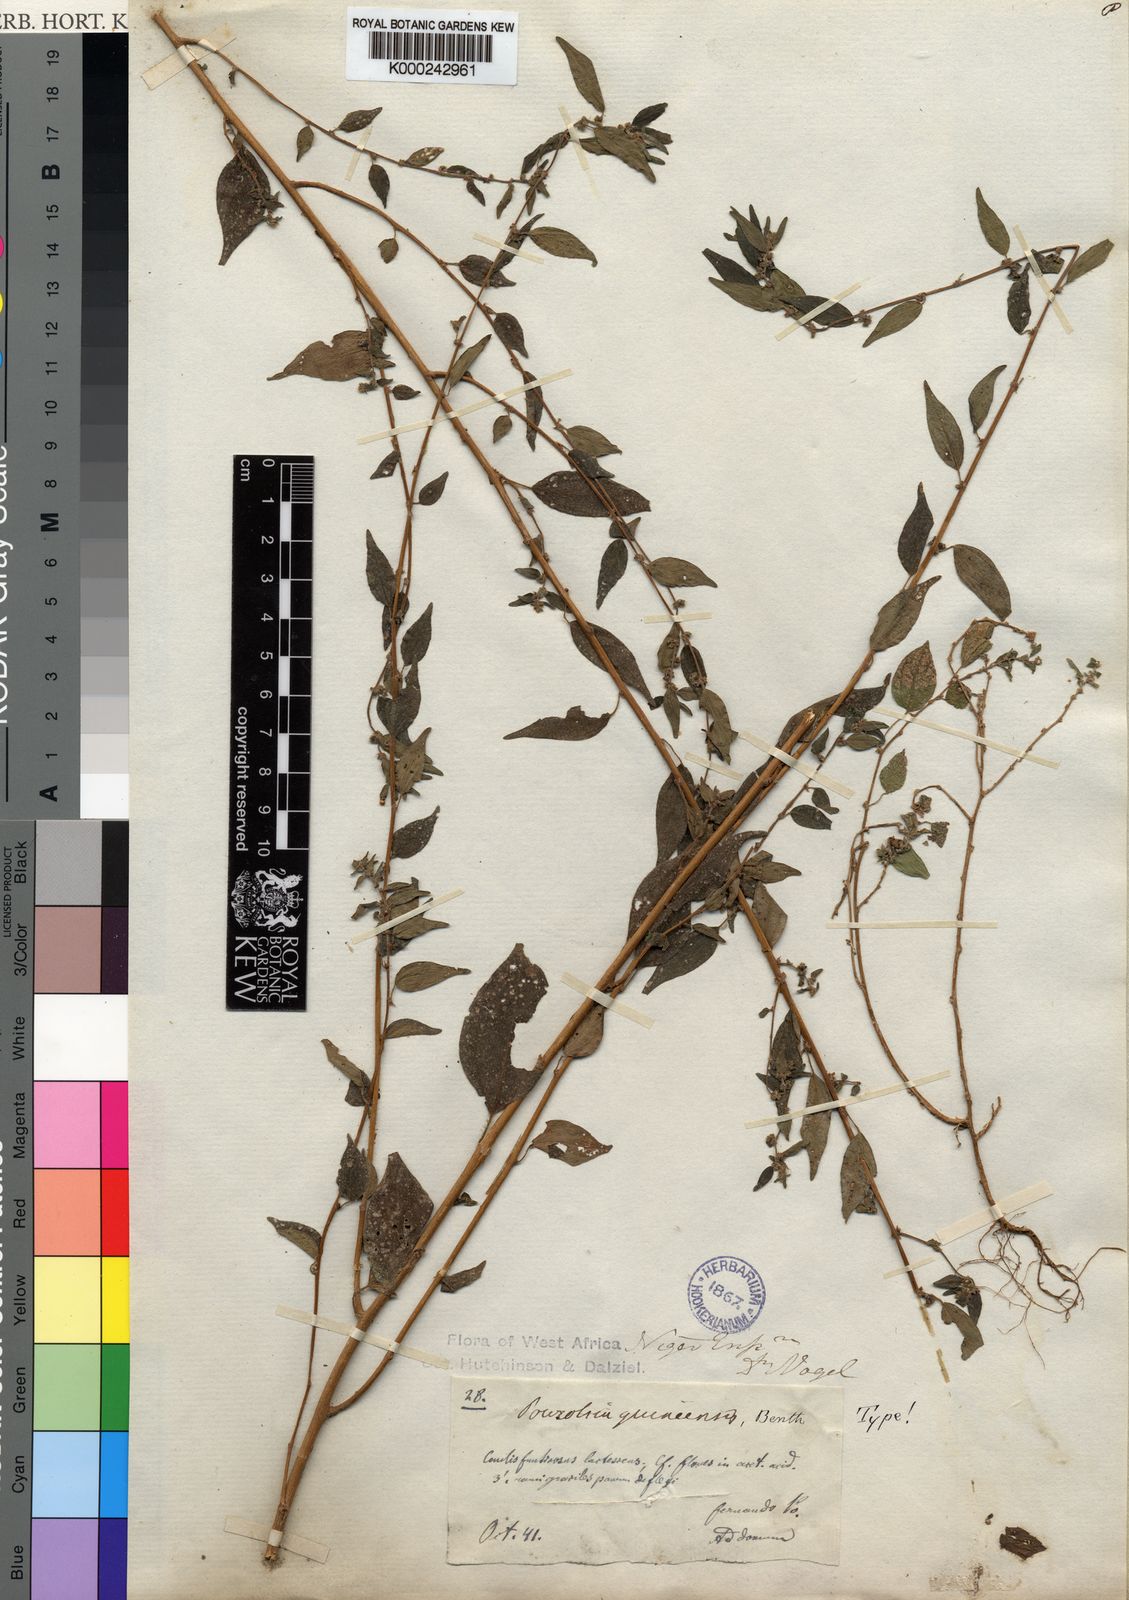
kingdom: Plantae
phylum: Tracheophyta
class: Magnoliopsida
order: Rosales
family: Urticaceae
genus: Pouzolzia
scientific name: Pouzolzia guineensis
